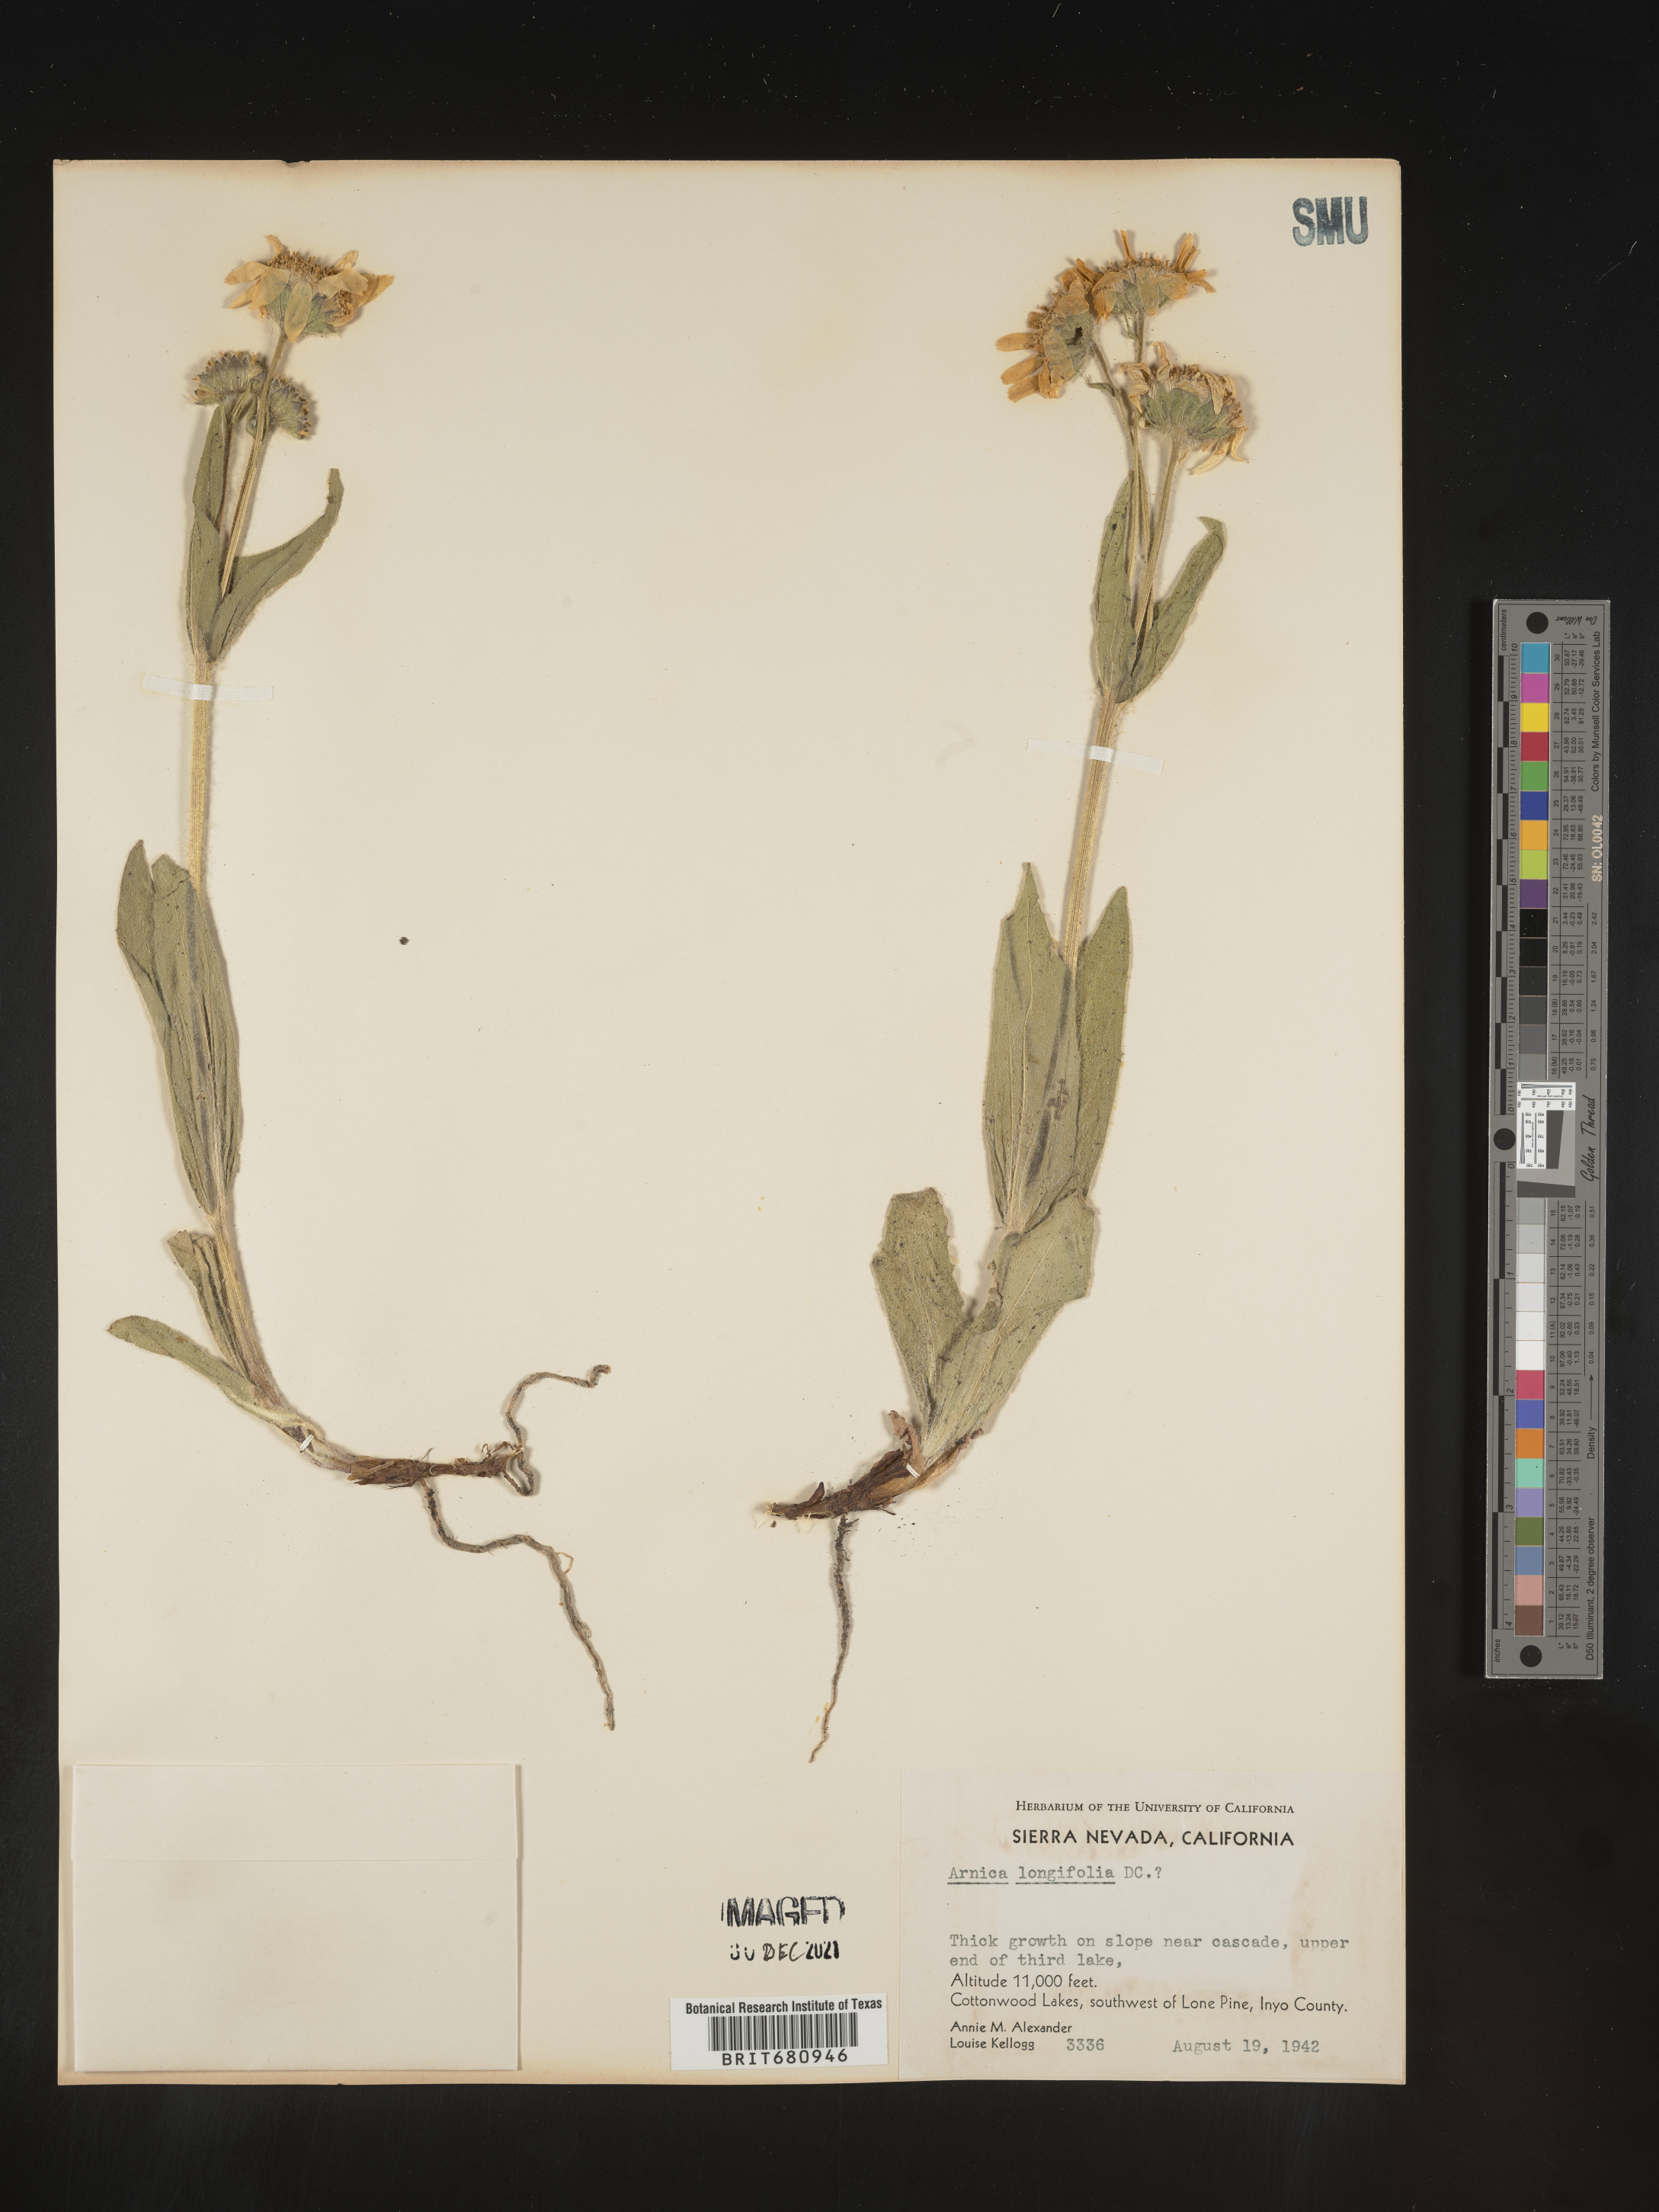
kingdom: Plantae
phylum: Tracheophyta
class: Magnoliopsida
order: Asterales
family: Asteraceae
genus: Arnica
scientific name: Arnica longifolia
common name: Spear-leaf arnica
